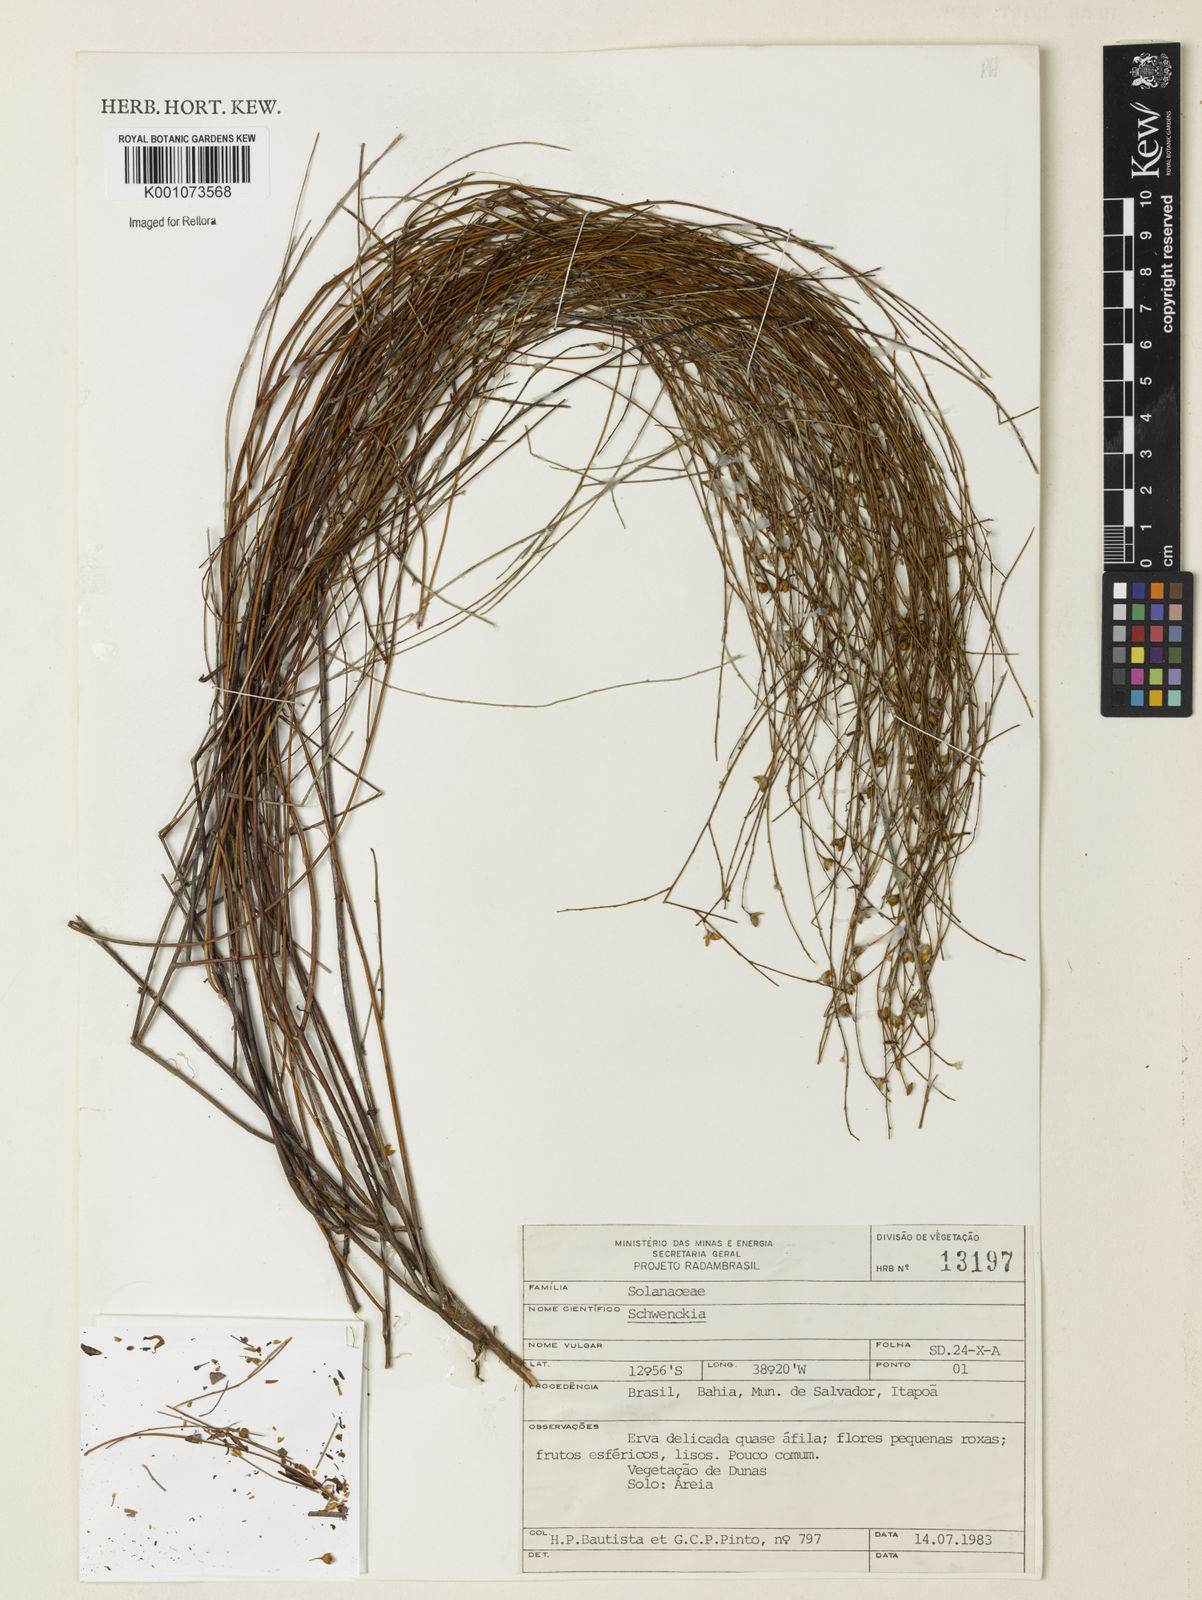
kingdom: Plantae
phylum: Tracheophyta
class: Magnoliopsida
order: Solanales
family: Solanaceae
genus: Schwenckia
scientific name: Schwenckia
